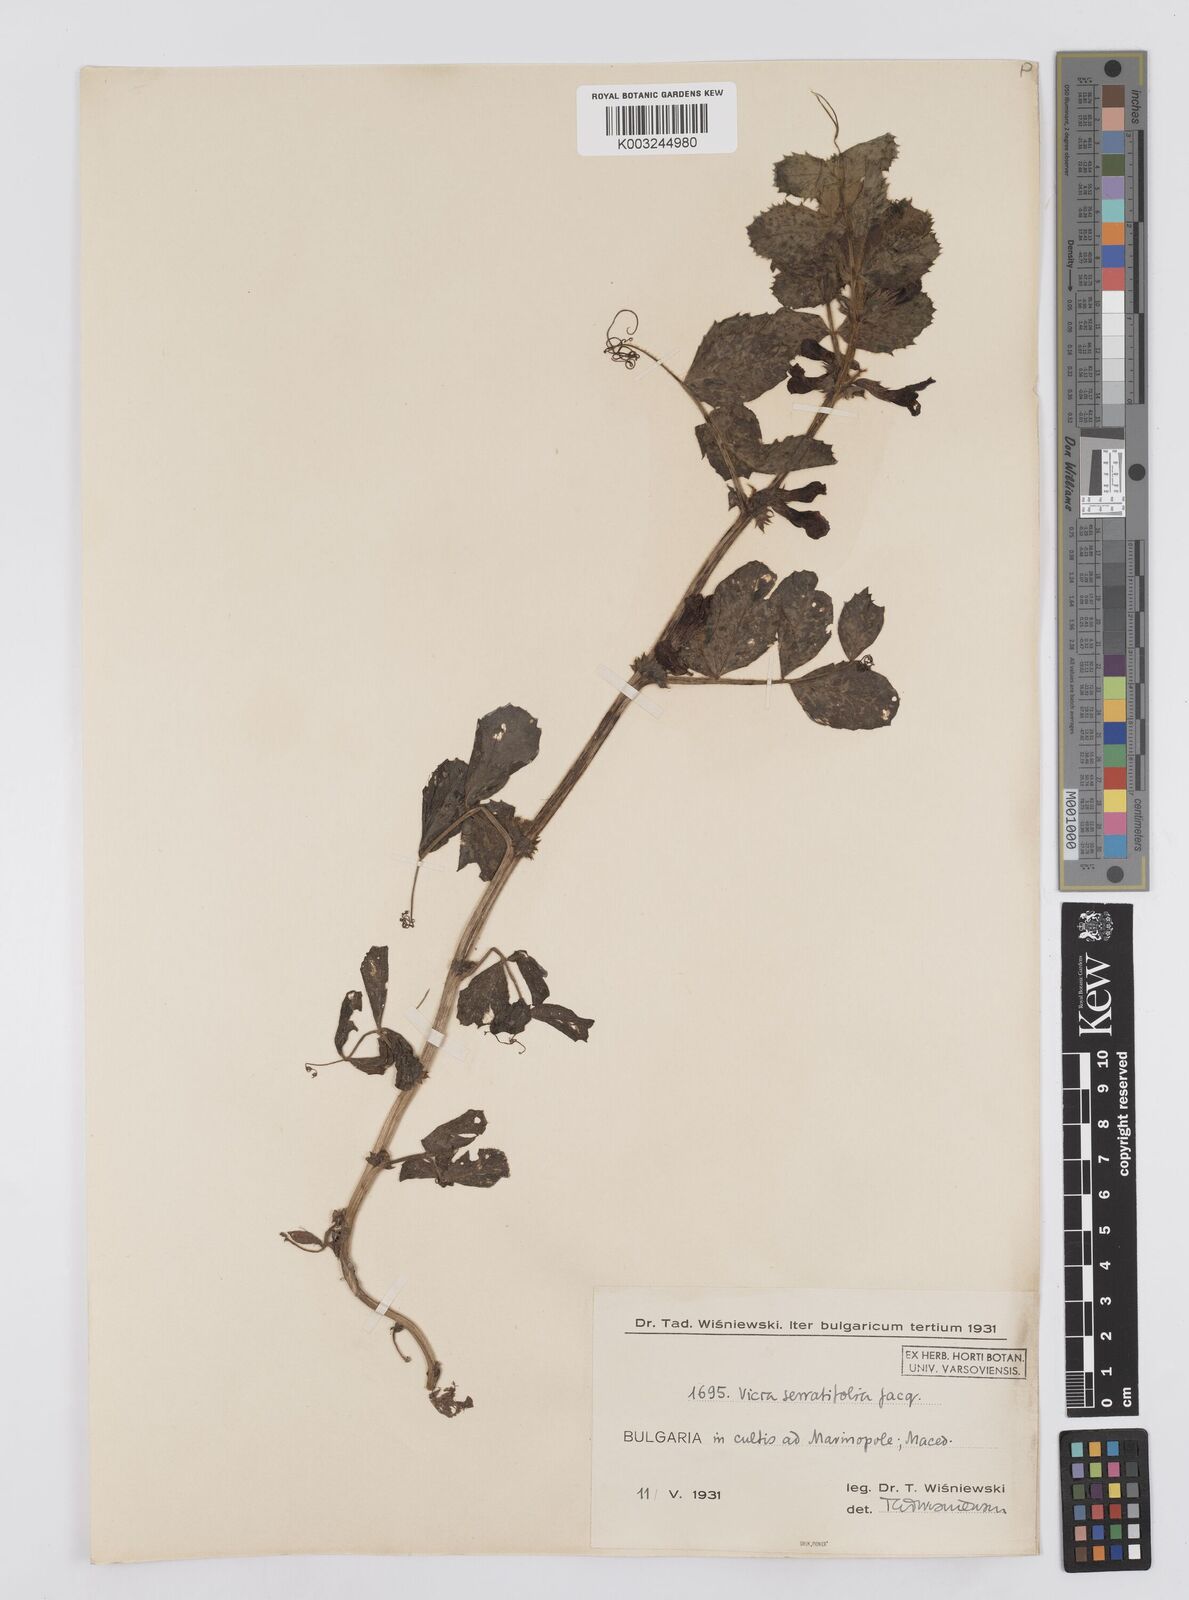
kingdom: Plantae
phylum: Tracheophyta
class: Magnoliopsida
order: Fabales
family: Fabaceae
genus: Vicia
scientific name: Vicia serratifolia
